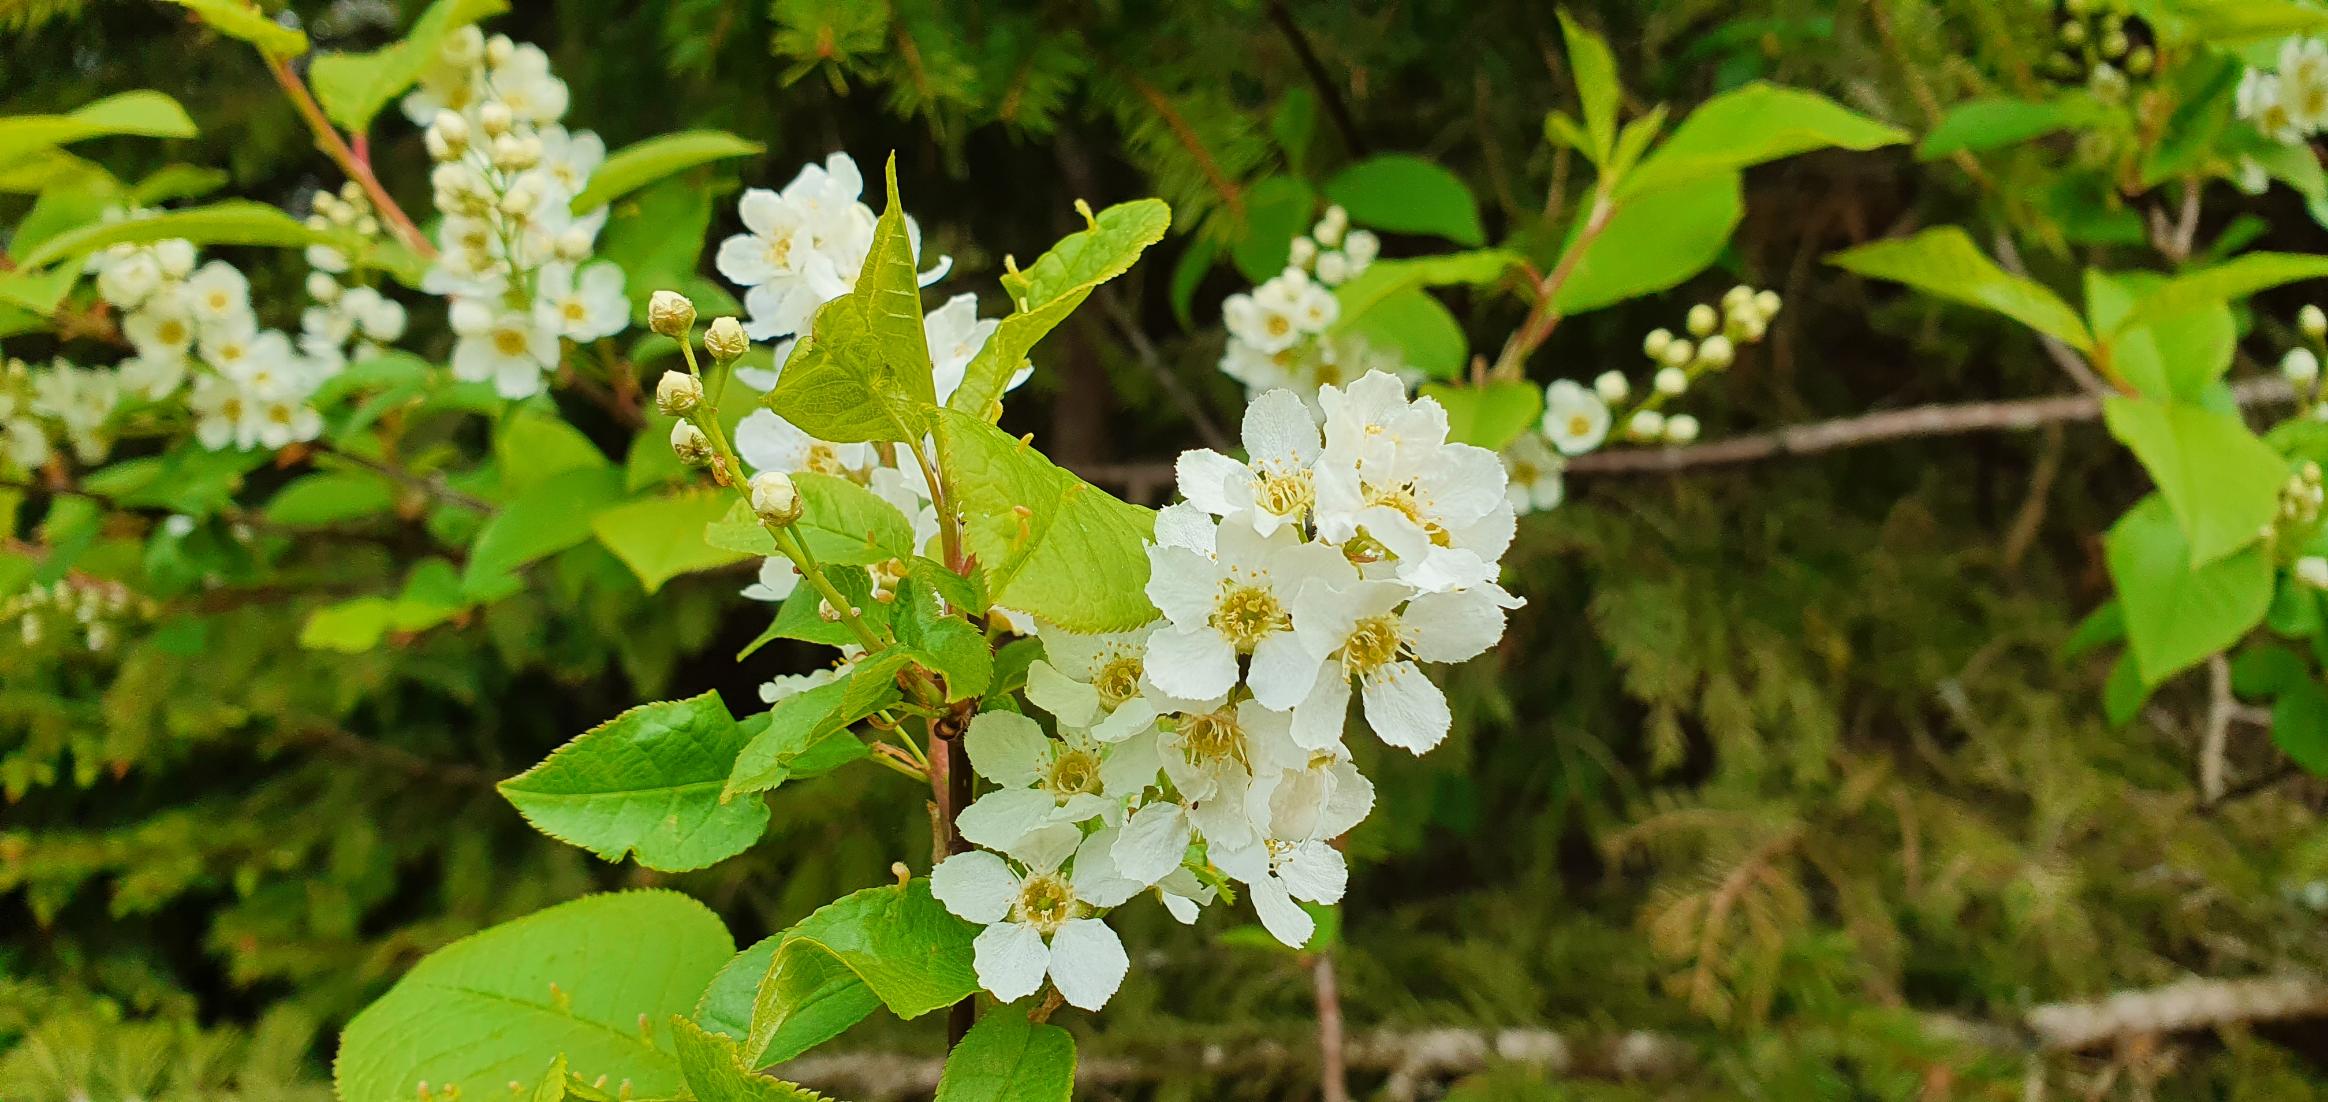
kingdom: Plantae
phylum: Tracheophyta
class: Magnoliopsida
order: Rosales
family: Rosaceae
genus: Prunus
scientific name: Prunus padus
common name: Almindelig hæg
